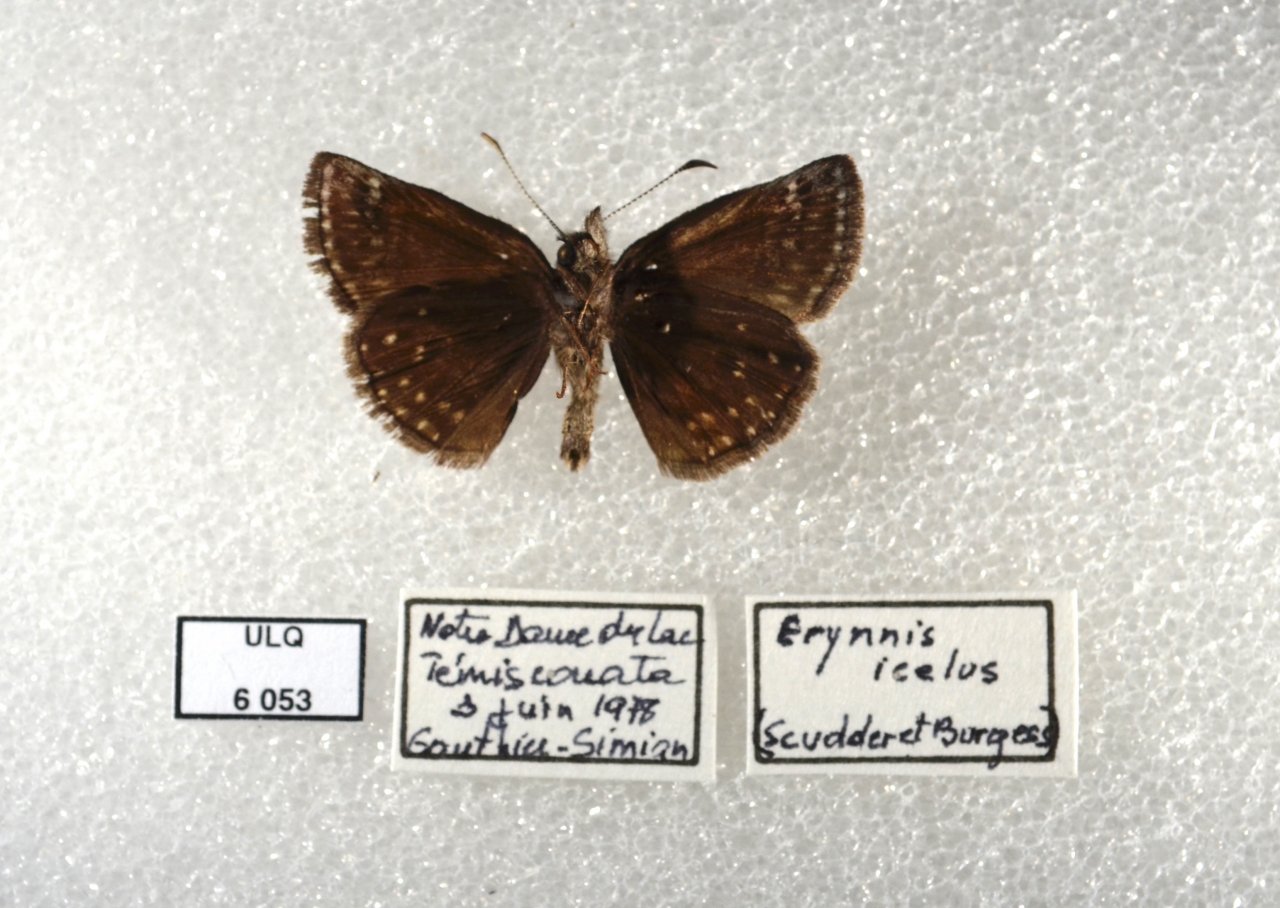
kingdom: Animalia
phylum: Arthropoda
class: Insecta
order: Lepidoptera
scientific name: Lepidoptera
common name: Butterflies
